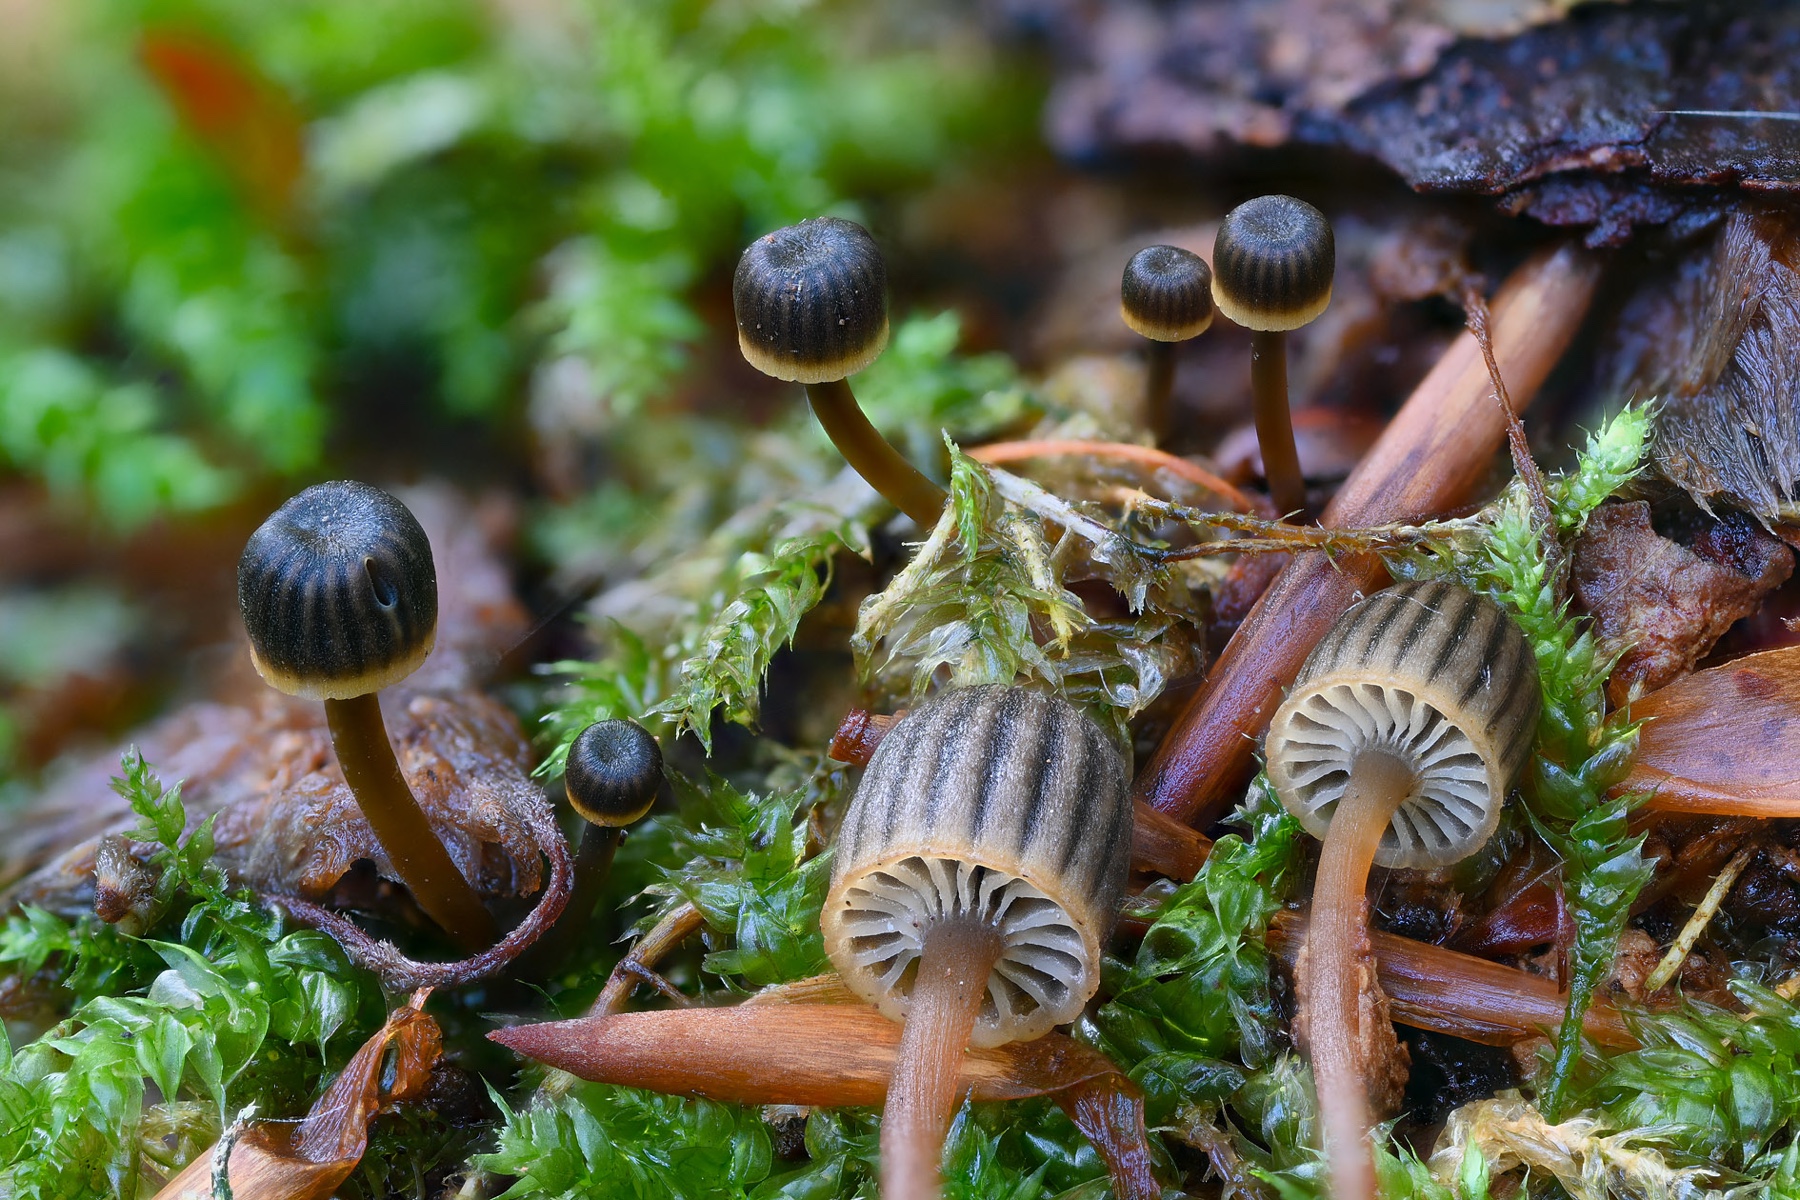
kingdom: Fungi
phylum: Basidiomycota
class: Agaricomycetes
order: Agaricales
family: Mycenaceae
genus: Mycena
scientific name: Mycena picta
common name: kantet huesvamp
